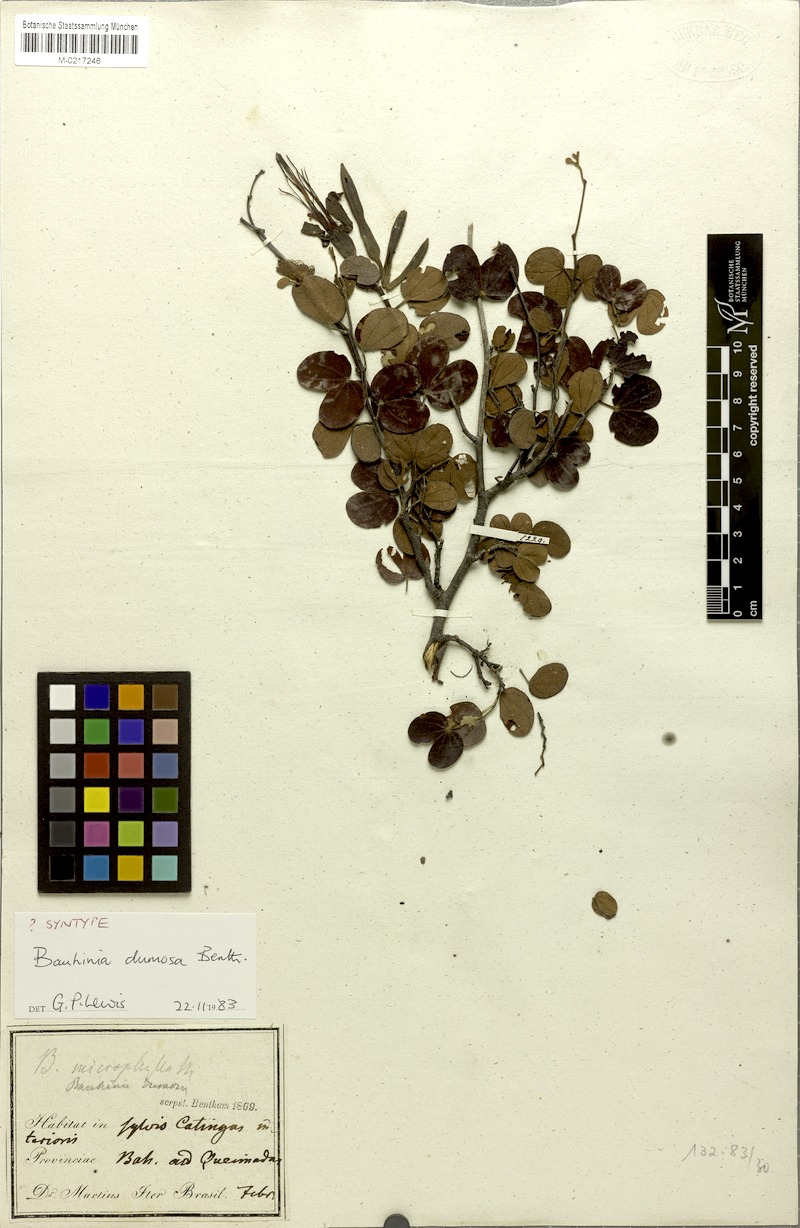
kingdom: Plantae
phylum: Tracheophyta
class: Magnoliopsida
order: Fabales
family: Fabaceae
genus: Bauhinia
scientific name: Bauhinia dumosa
